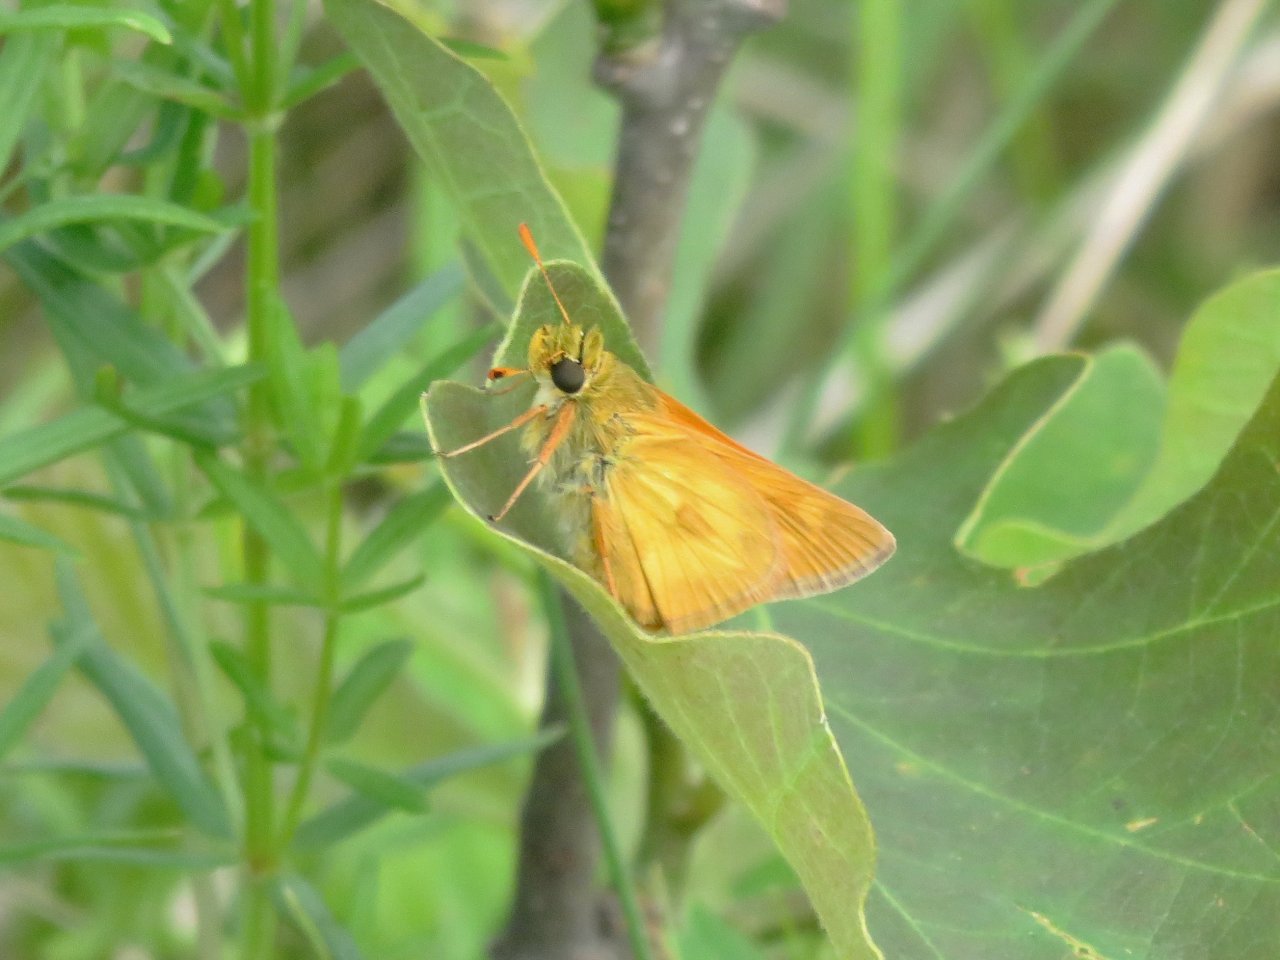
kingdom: Animalia
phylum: Arthropoda
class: Insecta
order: Lepidoptera
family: Hesperiidae
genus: Polites
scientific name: Polites
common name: Long Dash Skipper
